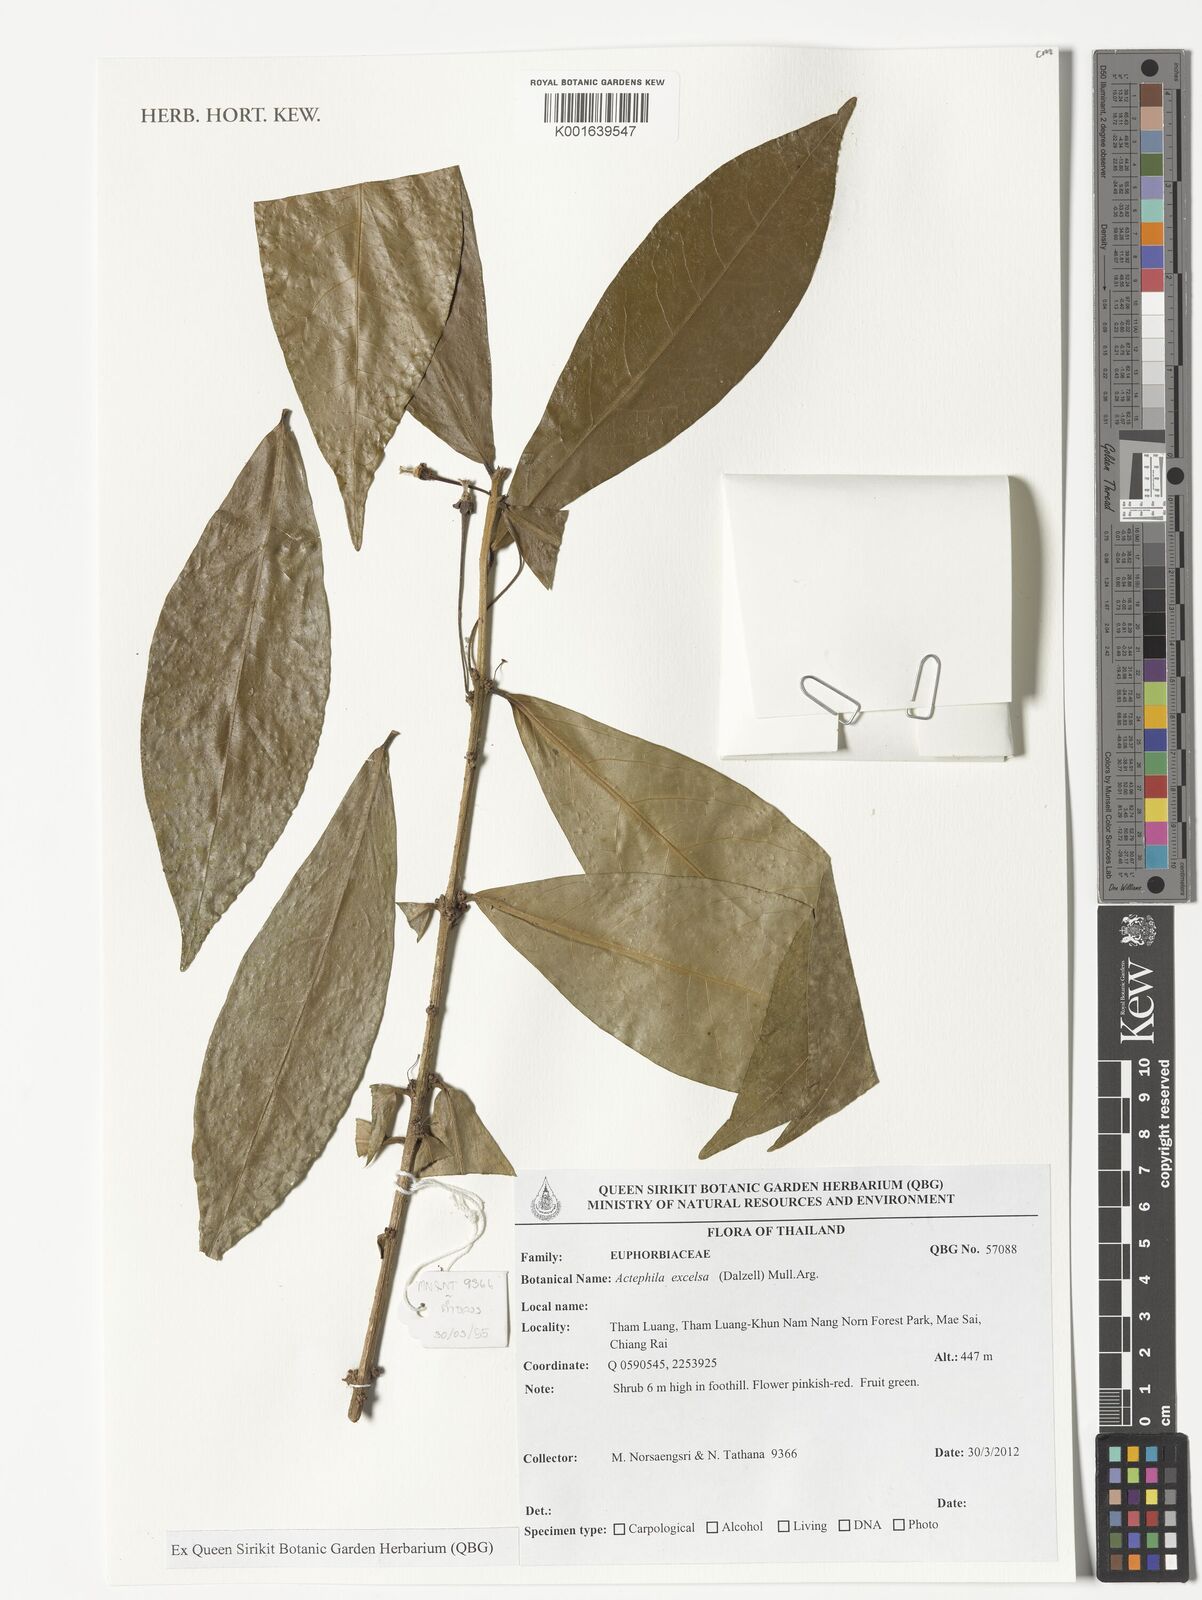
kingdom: Plantae
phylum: Tracheophyta
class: Magnoliopsida
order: Malpighiales
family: Phyllanthaceae
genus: Actephila
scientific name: Actephila excelsa
